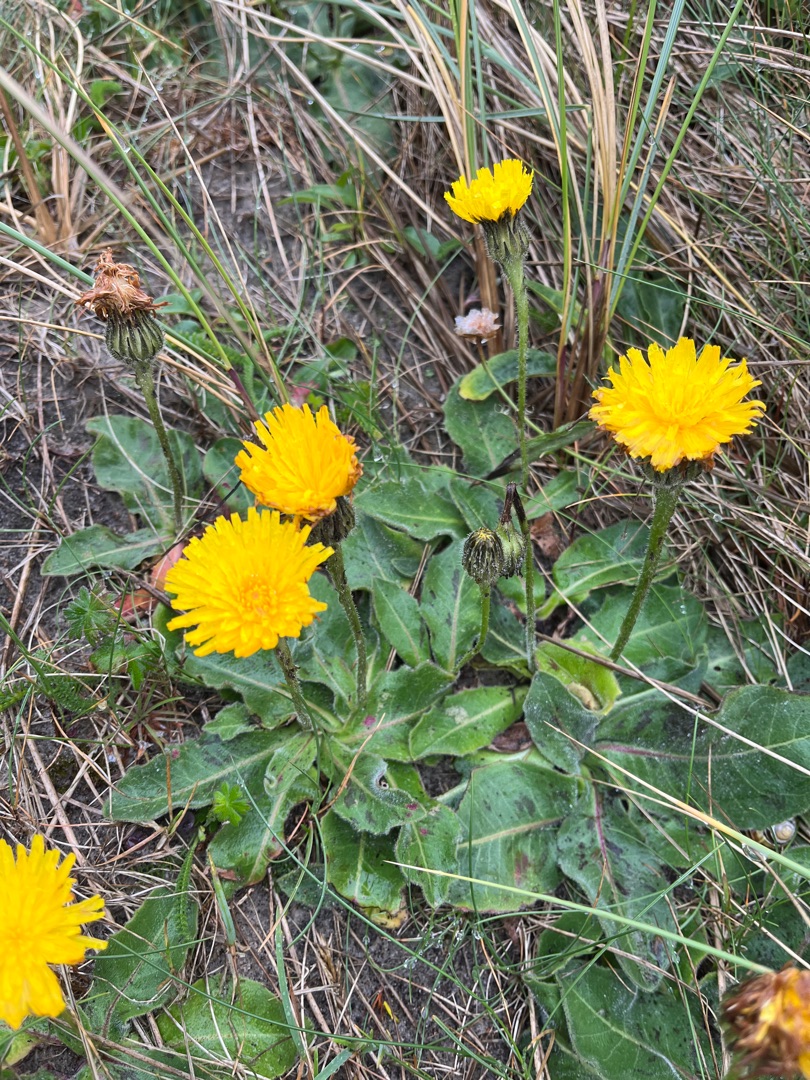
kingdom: Plantae
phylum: Tracheophyta
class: Magnoliopsida
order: Asterales
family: Asteraceae
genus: Trommsdorffia
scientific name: Trommsdorffia maculata
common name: Plettet kongepen
